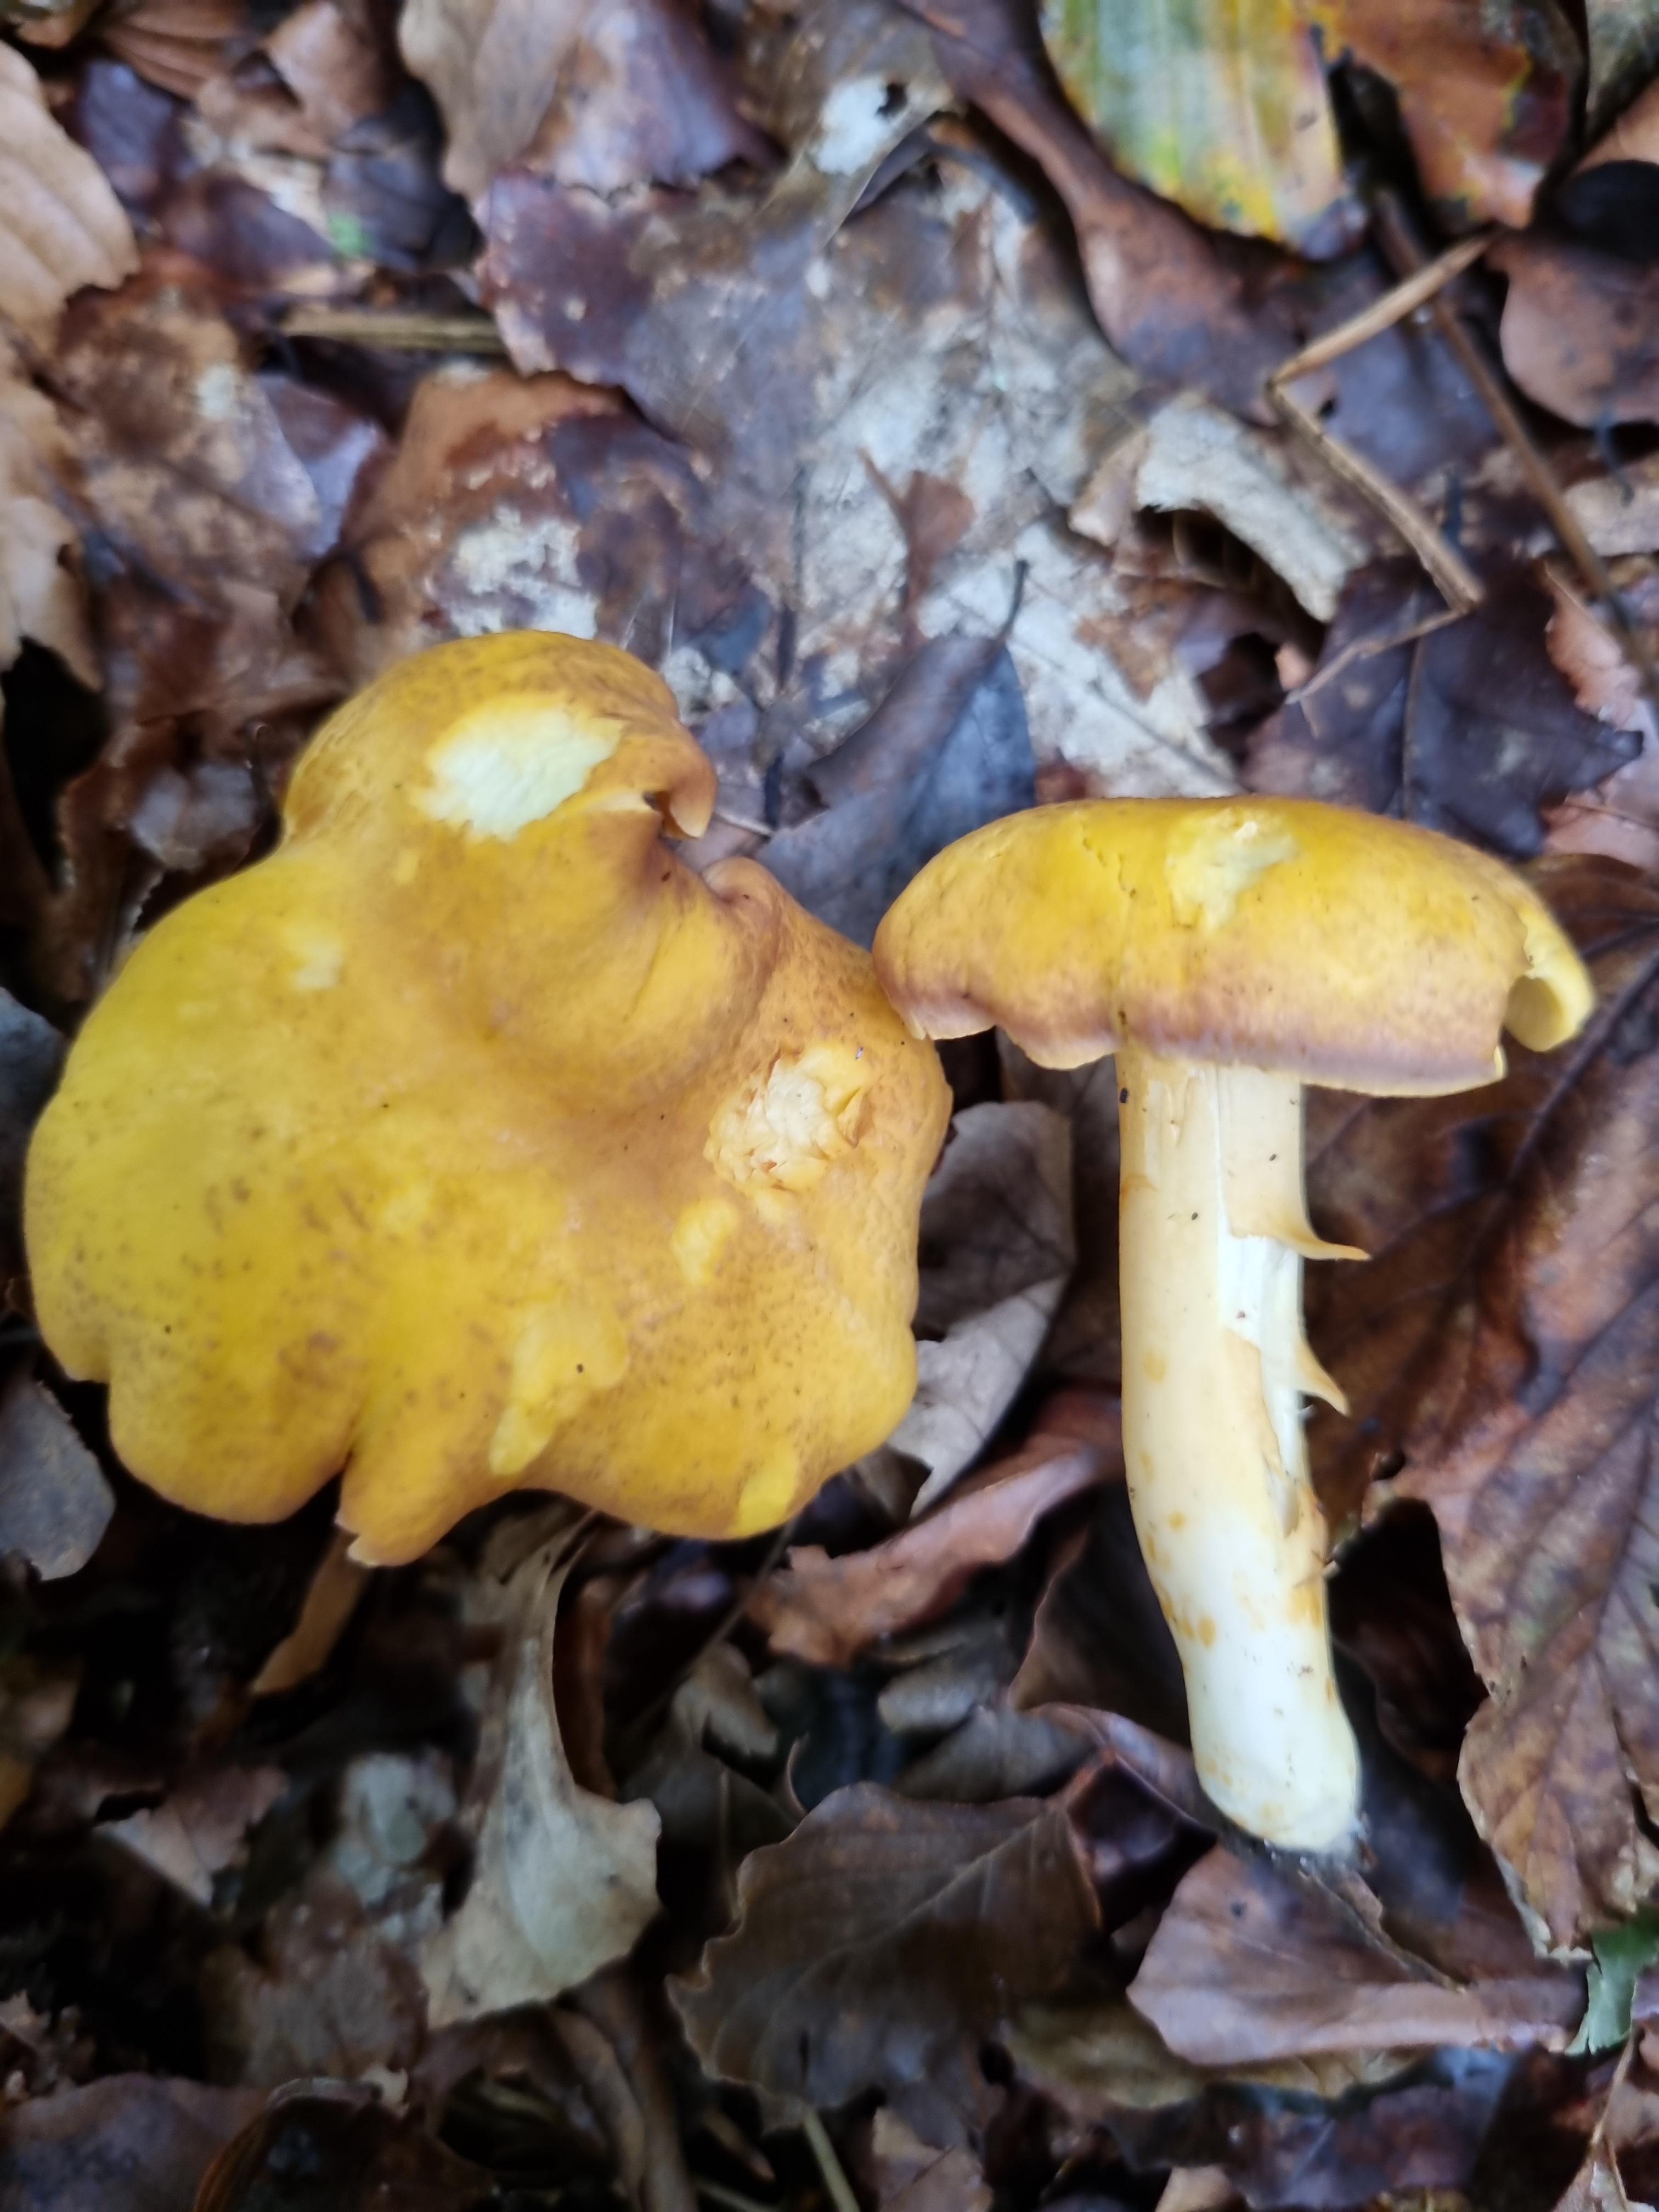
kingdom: Fungi
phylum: Basidiomycota
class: Agaricomycetes
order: Cantharellales
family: Hydnaceae
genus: Cantharellus
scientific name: Cantharellus amethysteus
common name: ametyst-kantarel
